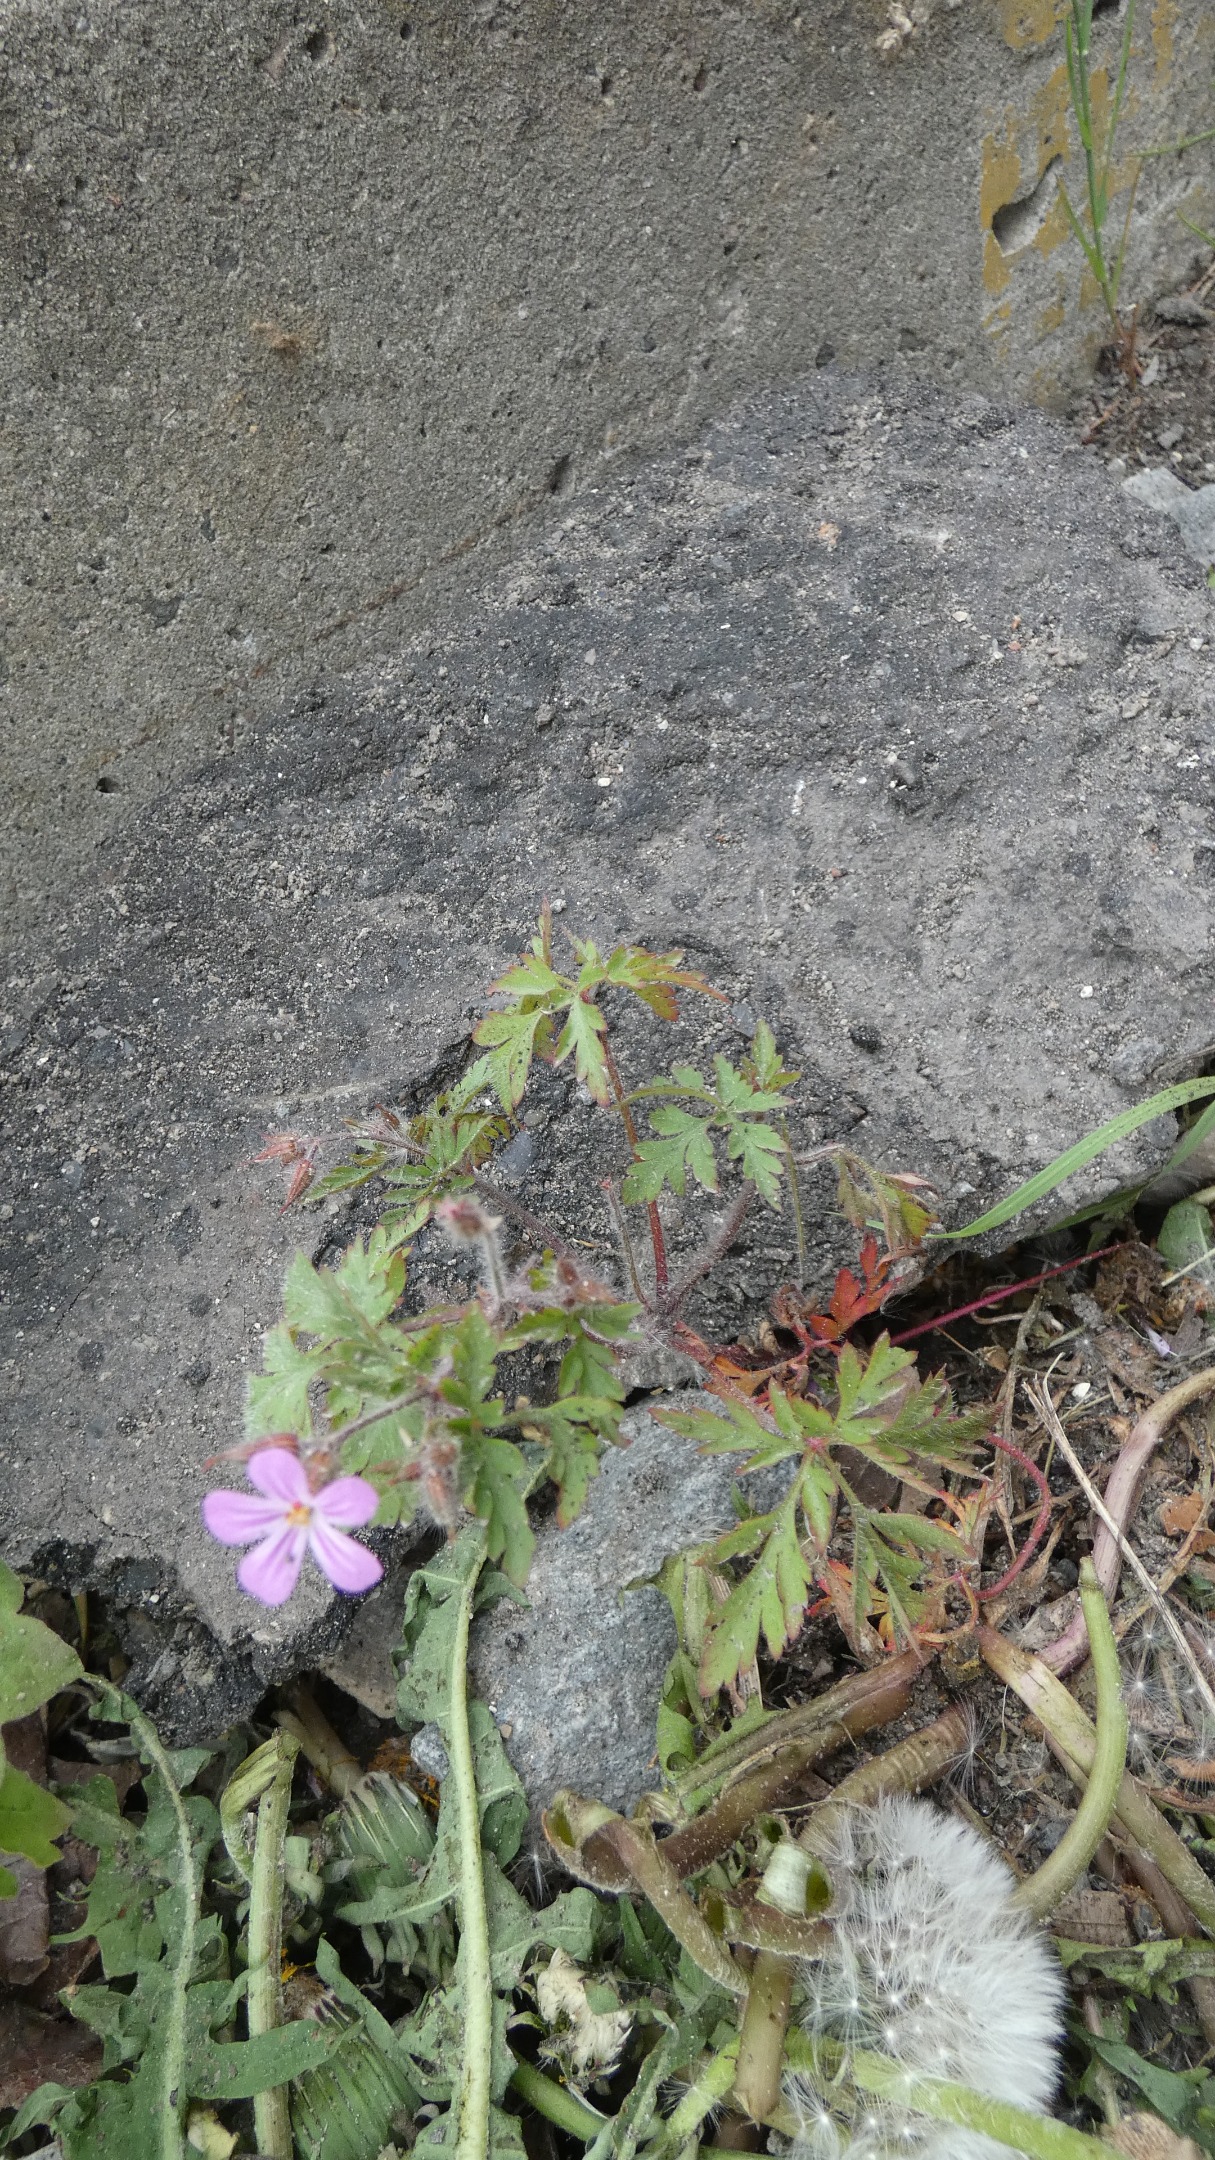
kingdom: Plantae
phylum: Tracheophyta
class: Magnoliopsida
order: Geraniales
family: Geraniaceae
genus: Geranium
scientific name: Geranium robertianum
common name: Stinkende storkenæb
